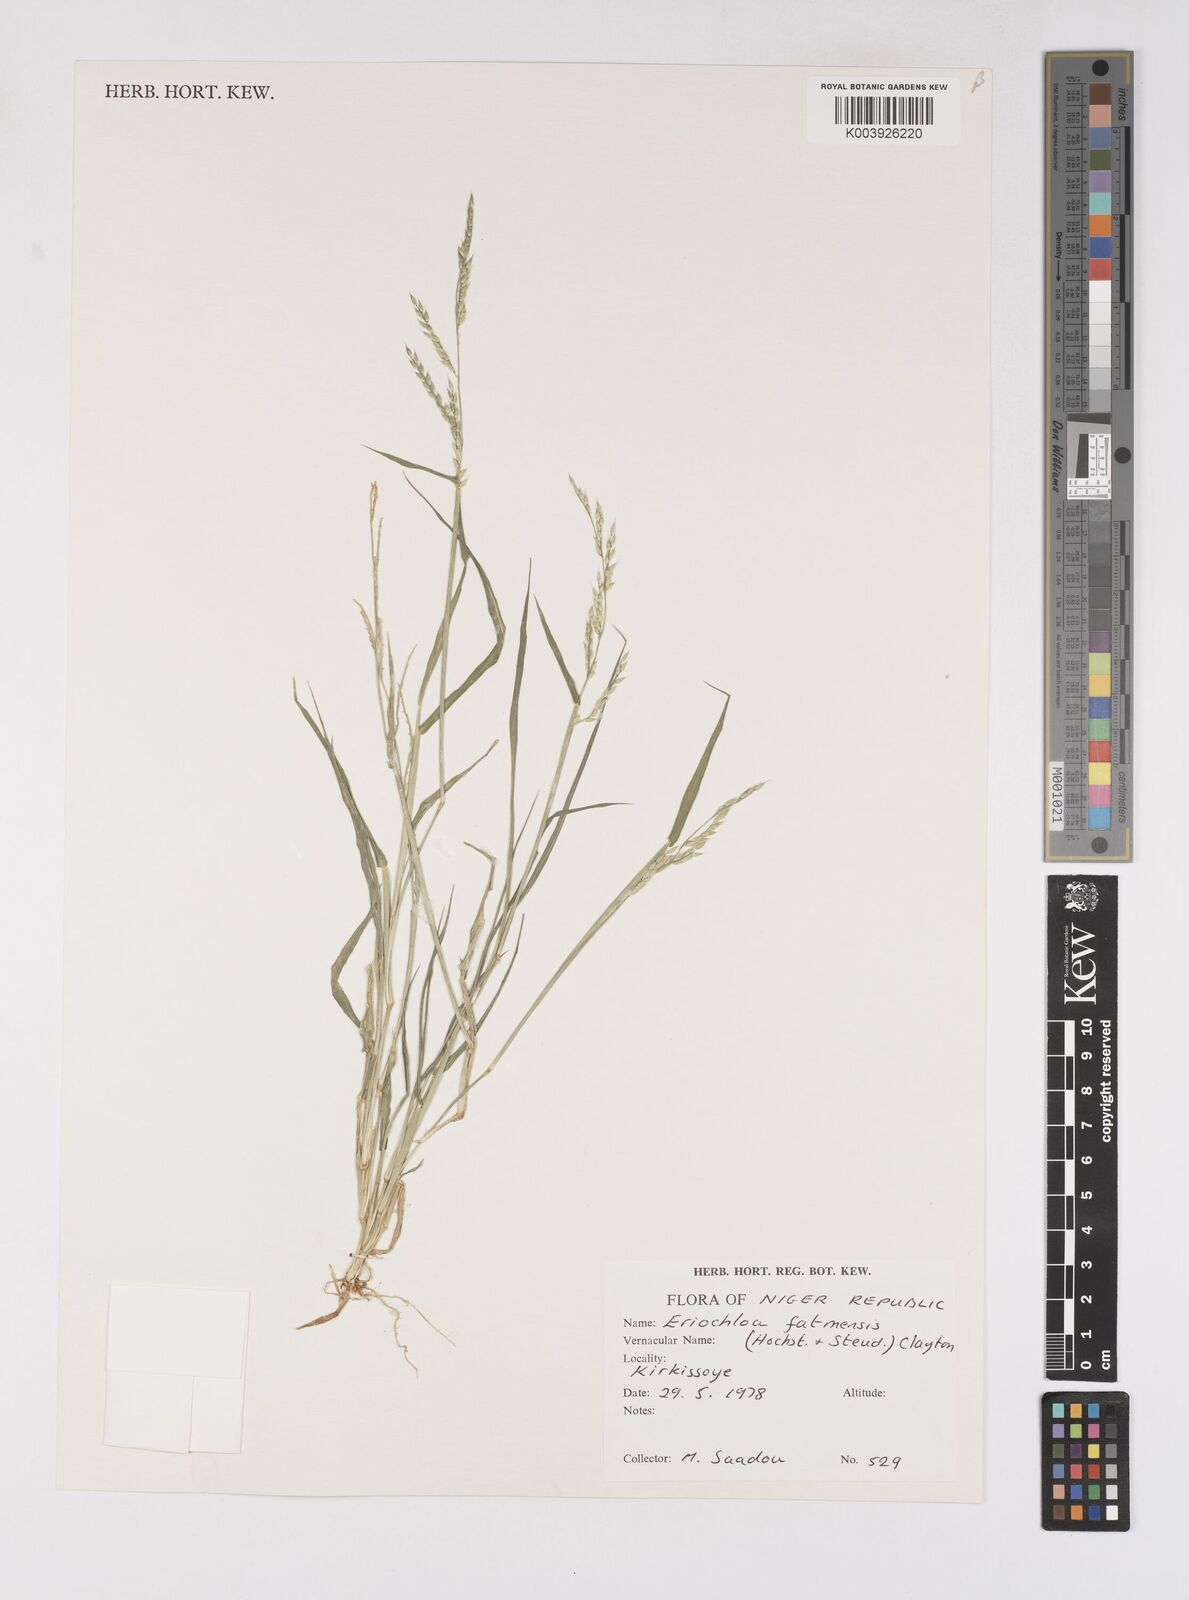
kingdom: Plantae
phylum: Tracheophyta
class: Liliopsida
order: Poales
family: Poaceae
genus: Eriochloa
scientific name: Eriochloa barbatus
